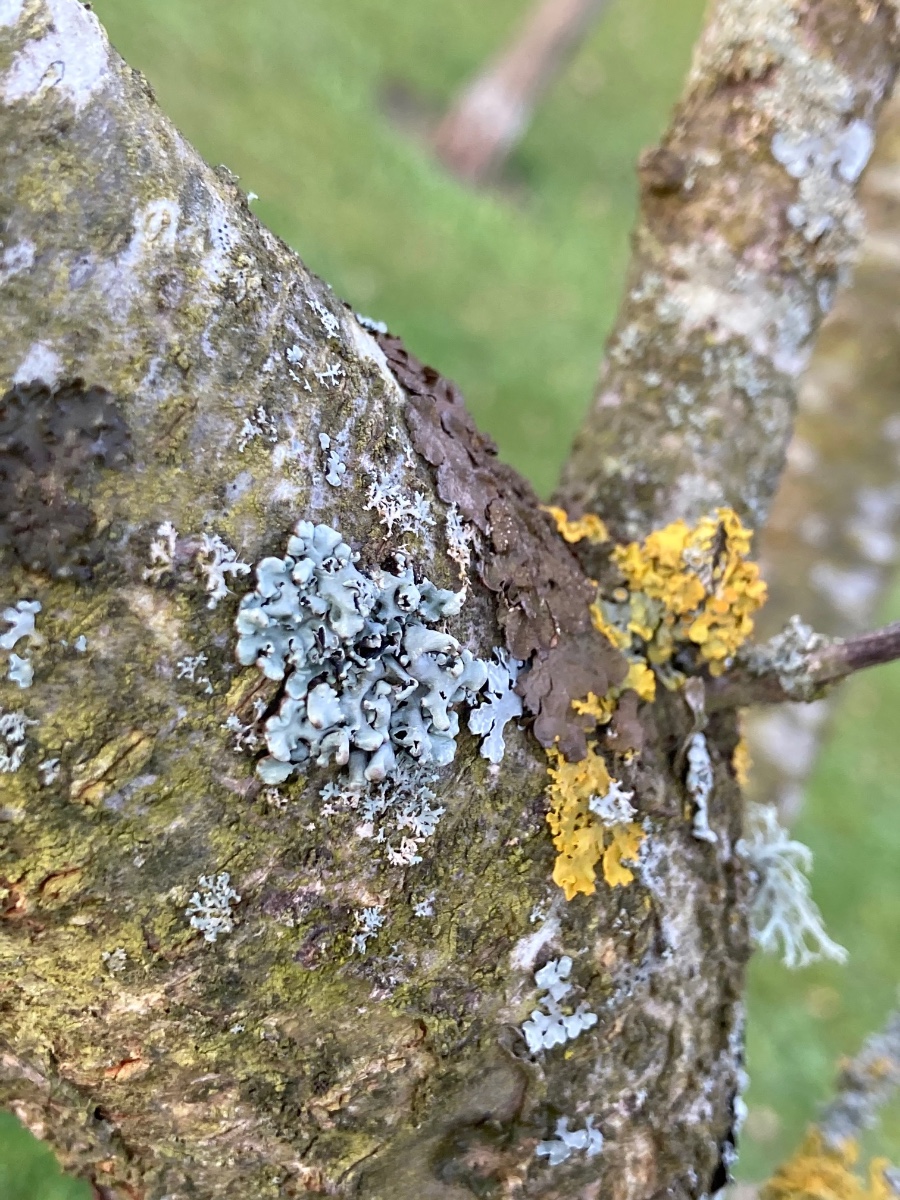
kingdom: Fungi
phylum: Ascomycota
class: Lecanoromycetes
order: Lecanorales
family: Parmeliaceae
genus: Hypogymnia
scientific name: Hypogymnia physodes
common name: almindelig kvistlav
